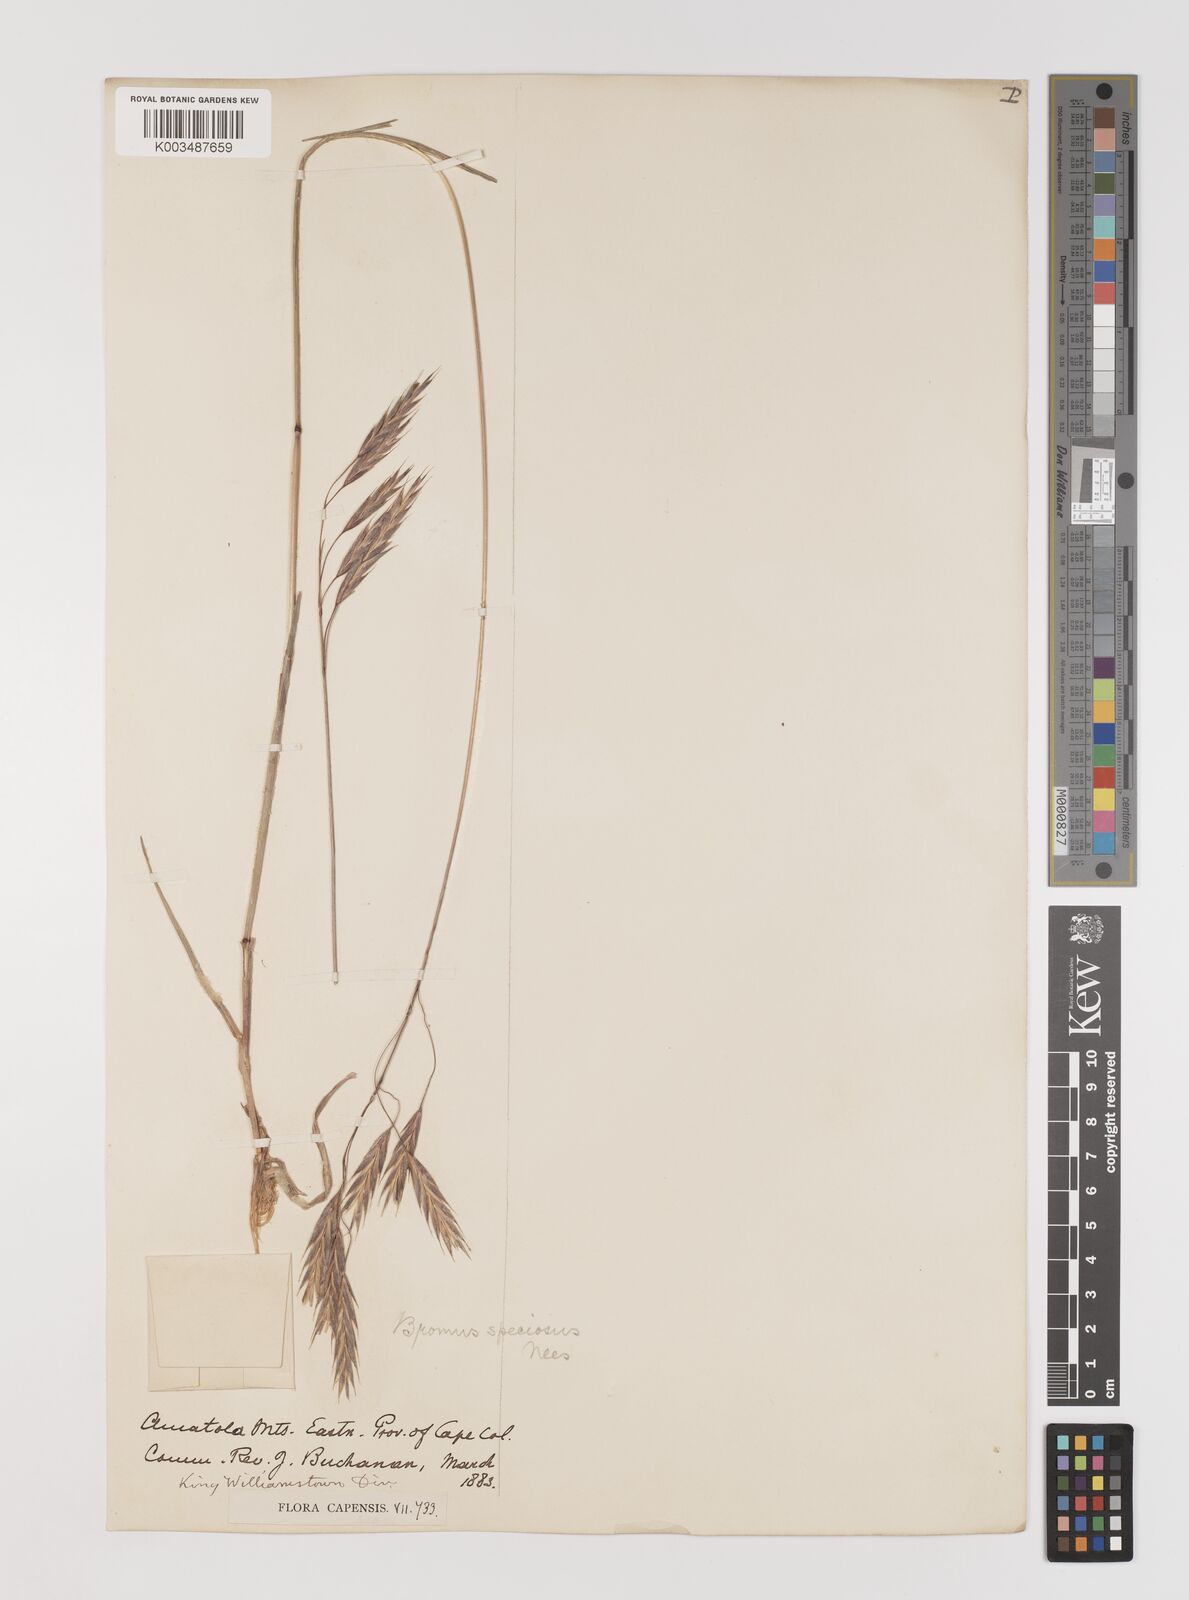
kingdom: Plantae
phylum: Tracheophyta
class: Liliopsida
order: Poales
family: Poaceae
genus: Bromus
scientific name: Bromus firmior
